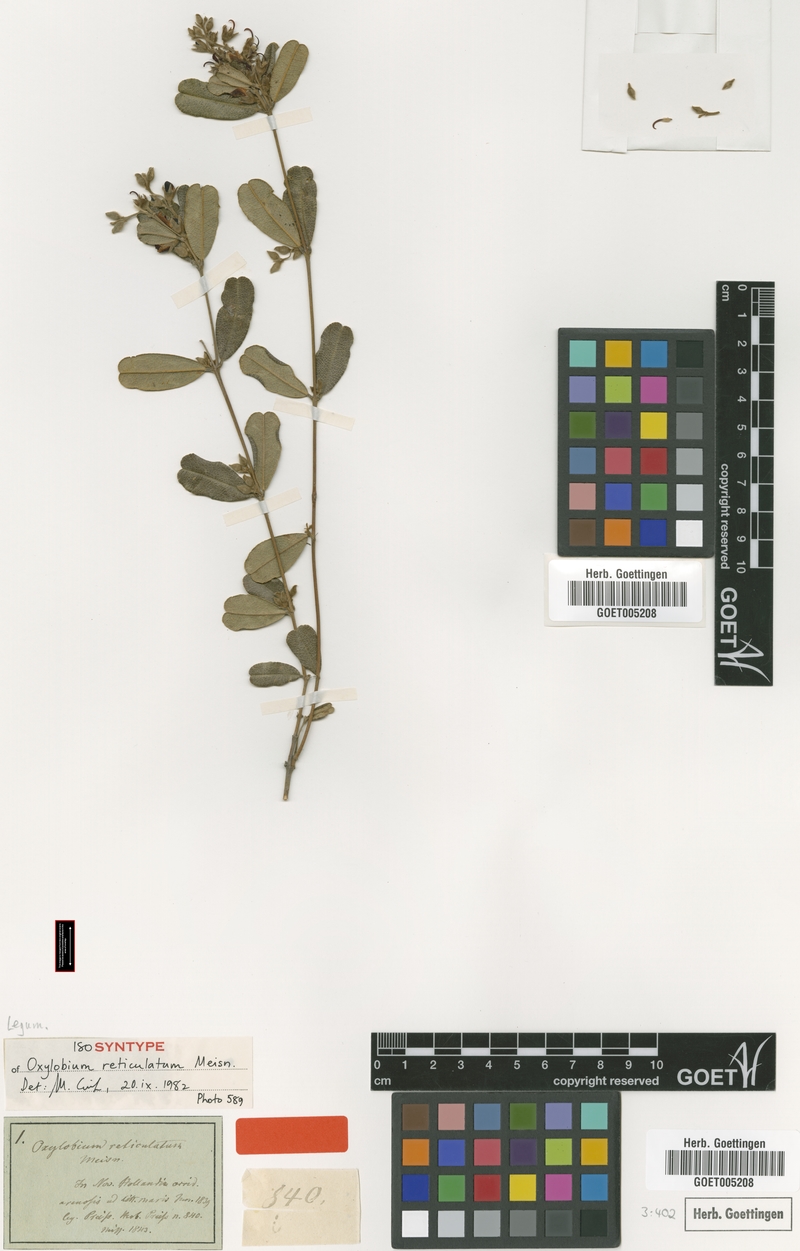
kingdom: Plantae
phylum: Tracheophyta
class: Magnoliopsida
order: Fabales
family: Fabaceae
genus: Gastrolobium
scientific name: Gastrolobium nervosum
